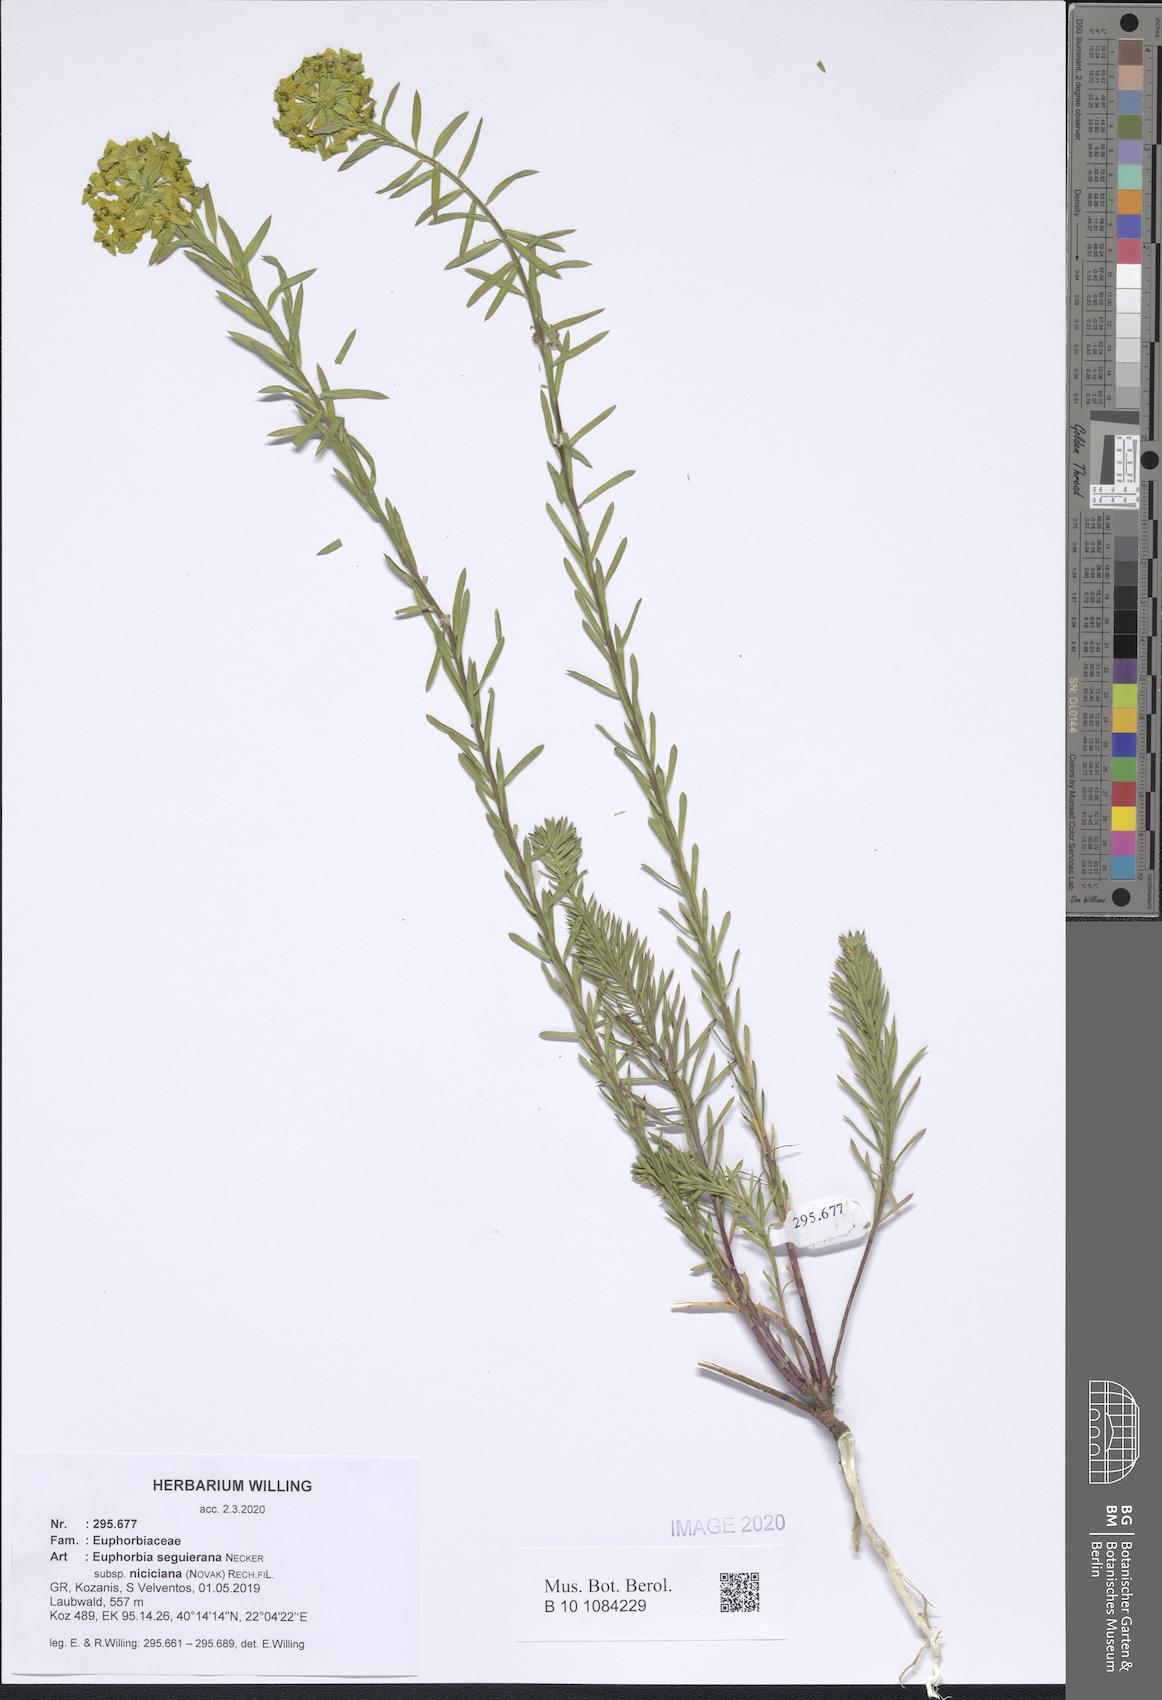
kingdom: Plantae
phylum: Tracheophyta
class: Magnoliopsida
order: Malpighiales
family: Euphorbiaceae
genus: Euphorbia
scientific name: Euphorbia seguieriana
